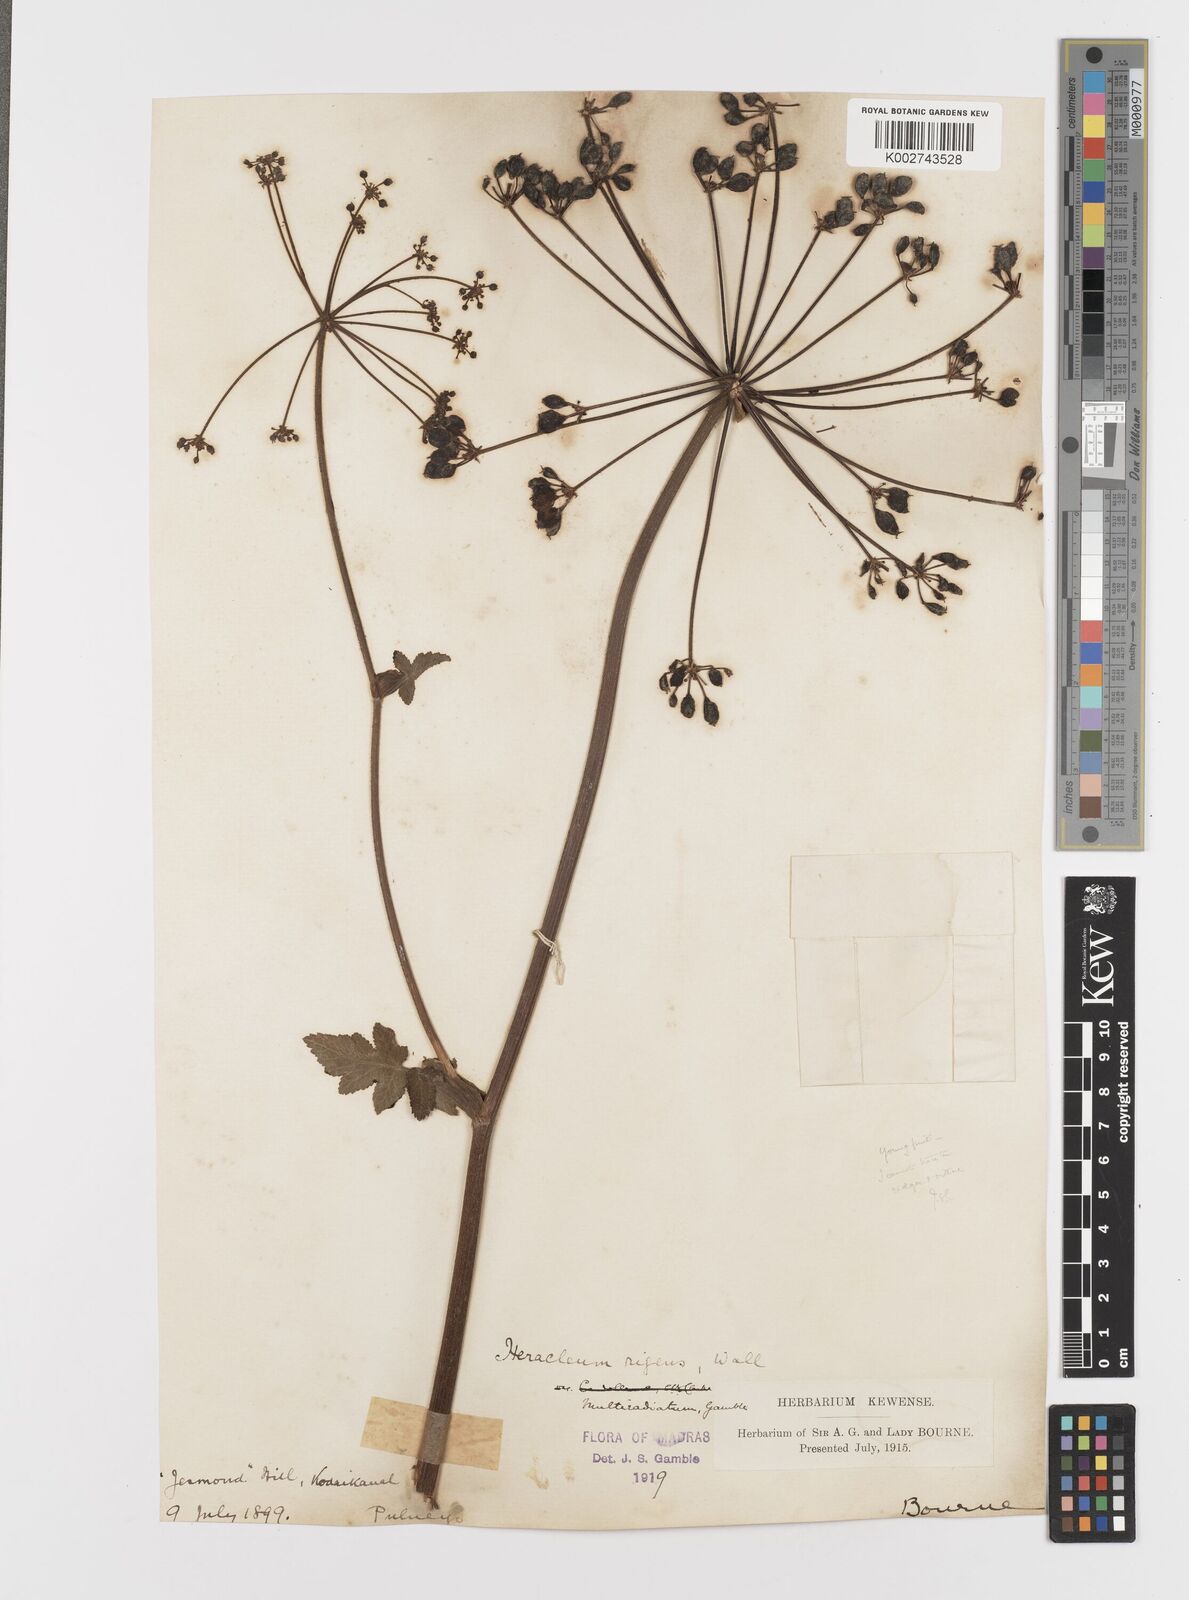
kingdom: Plantae
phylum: Tracheophyta
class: Magnoliopsida
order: Apiales
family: Apiaceae
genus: Tetrataenium
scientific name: Tetrataenium rigens
